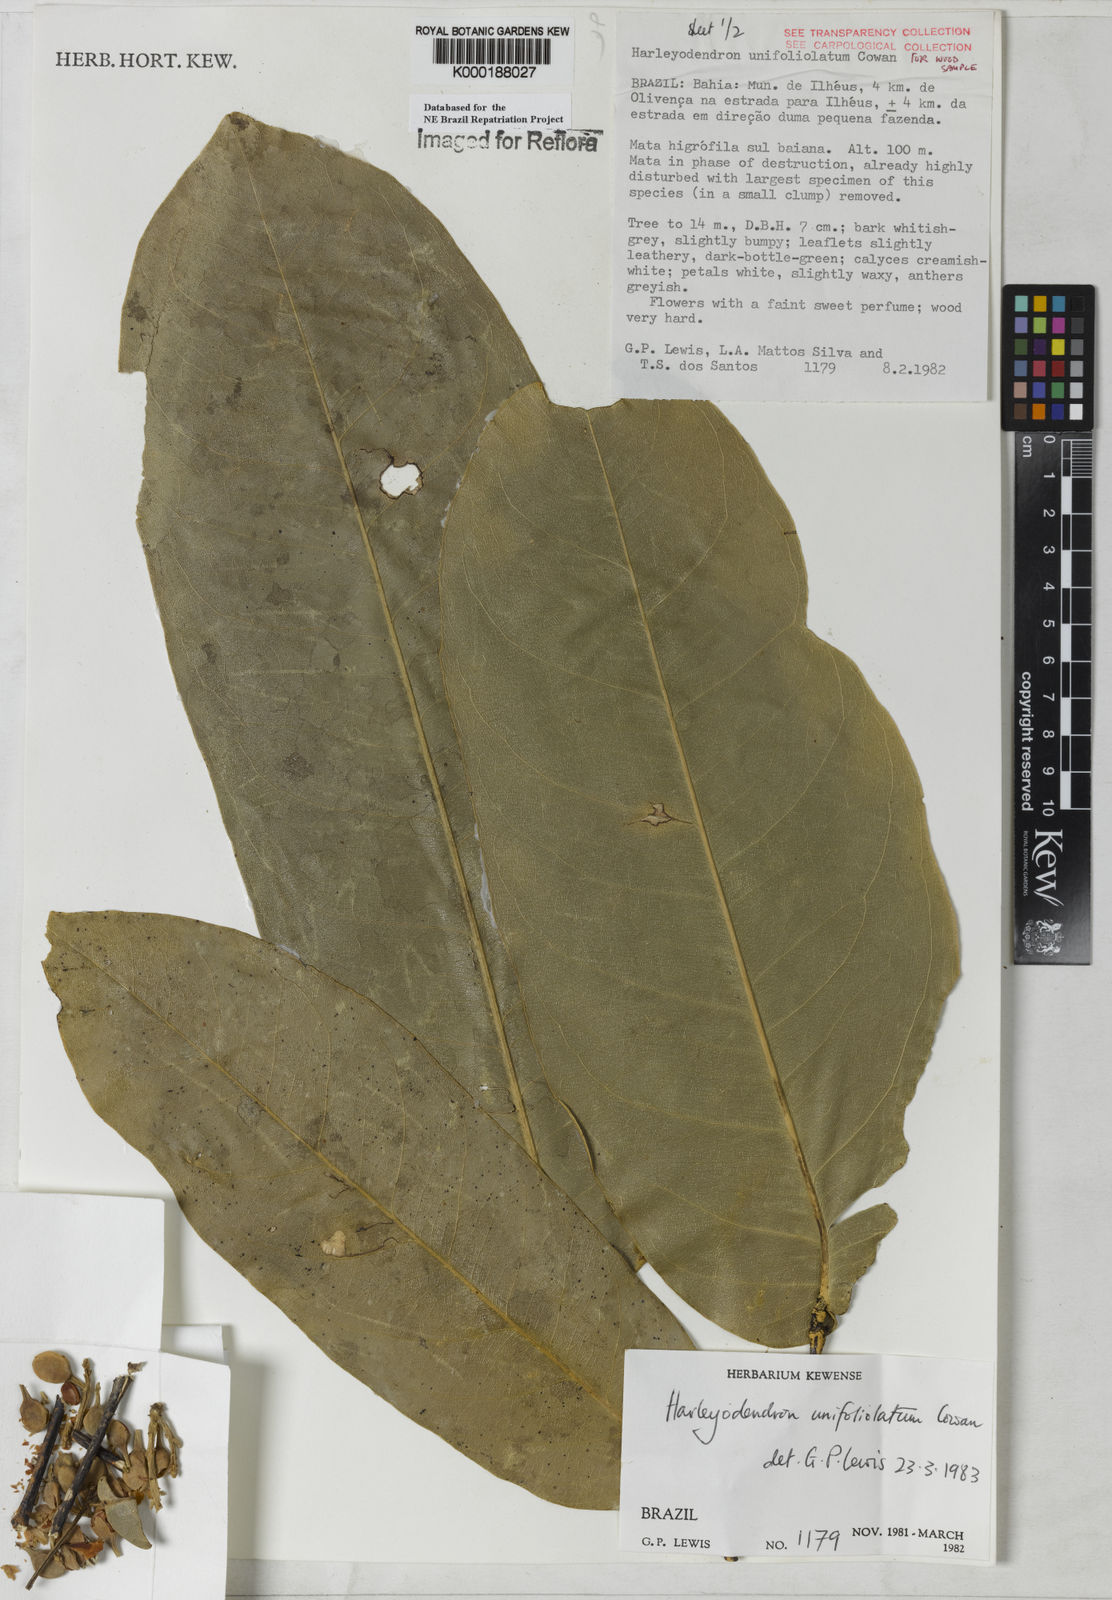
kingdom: Plantae
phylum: Tracheophyta
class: Magnoliopsida
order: Fabales
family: Fabaceae
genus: Harleyodendron
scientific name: Harleyodendron unifoliolatum
